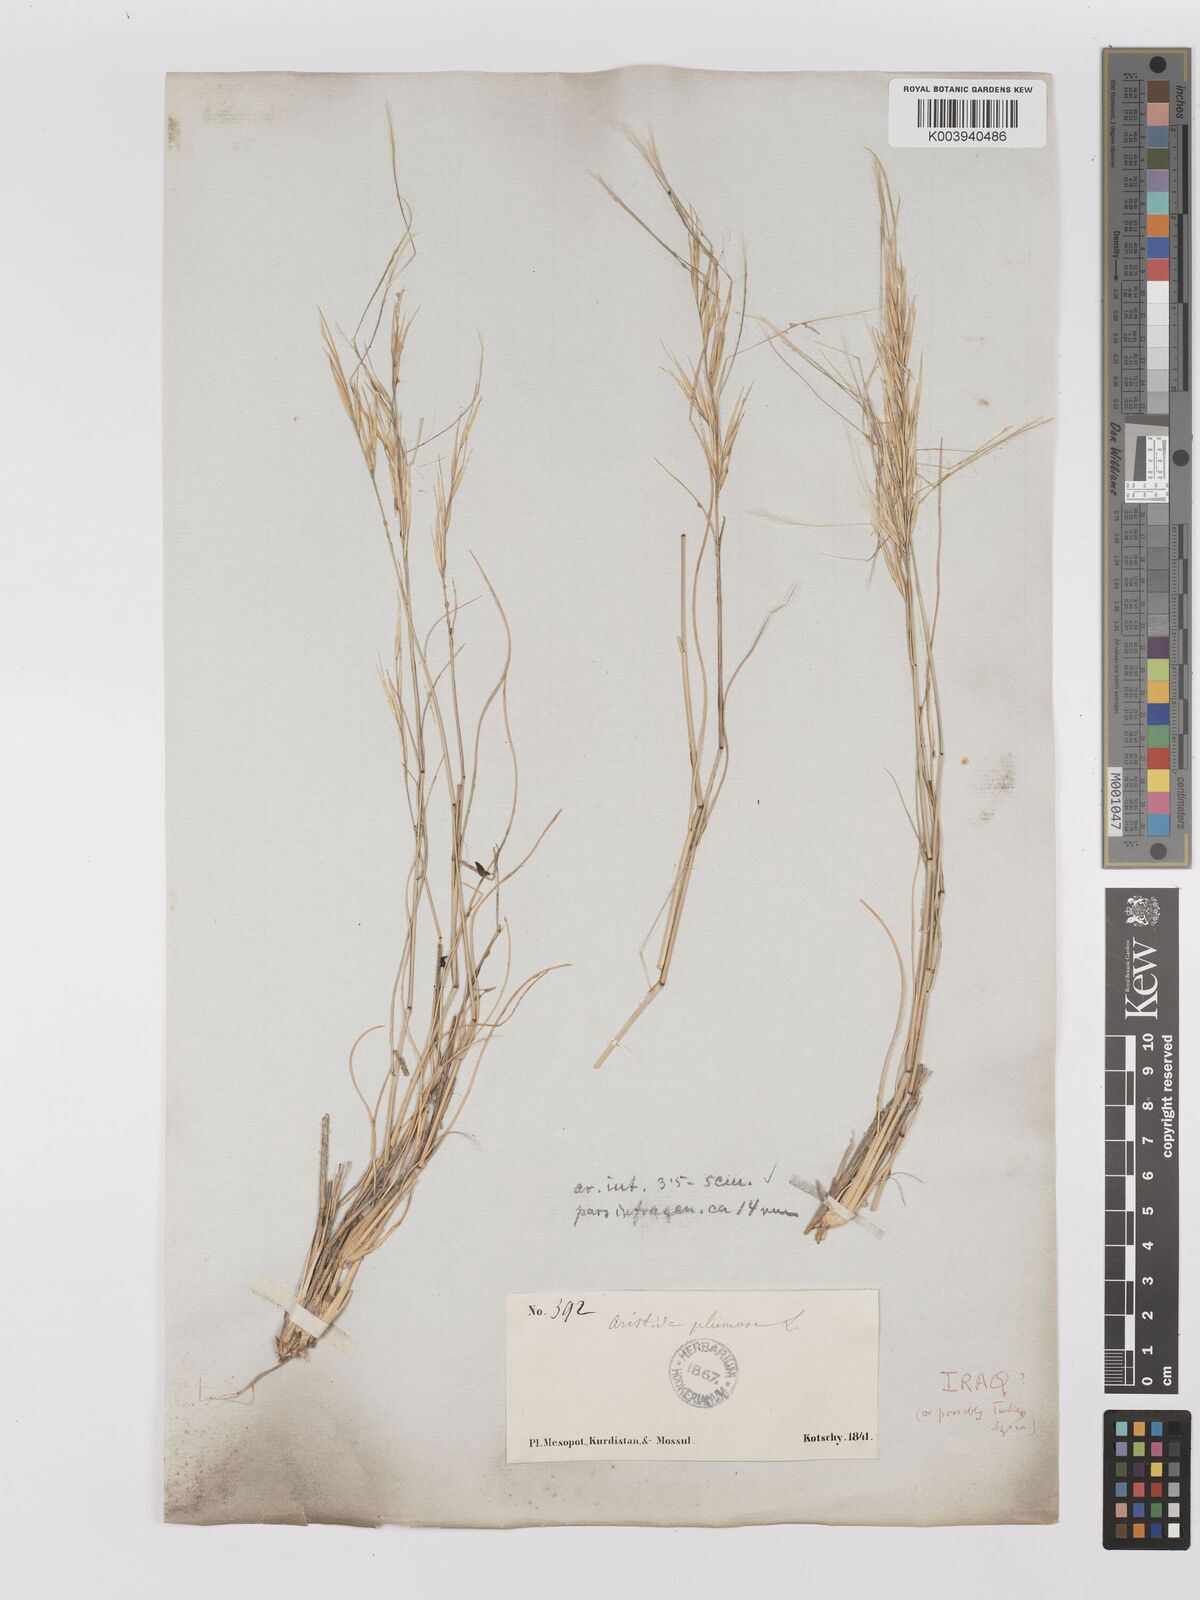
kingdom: Plantae
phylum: Tracheophyta
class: Liliopsida
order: Poales
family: Poaceae
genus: Stipagrostis
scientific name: Stipagrostis plumosa
